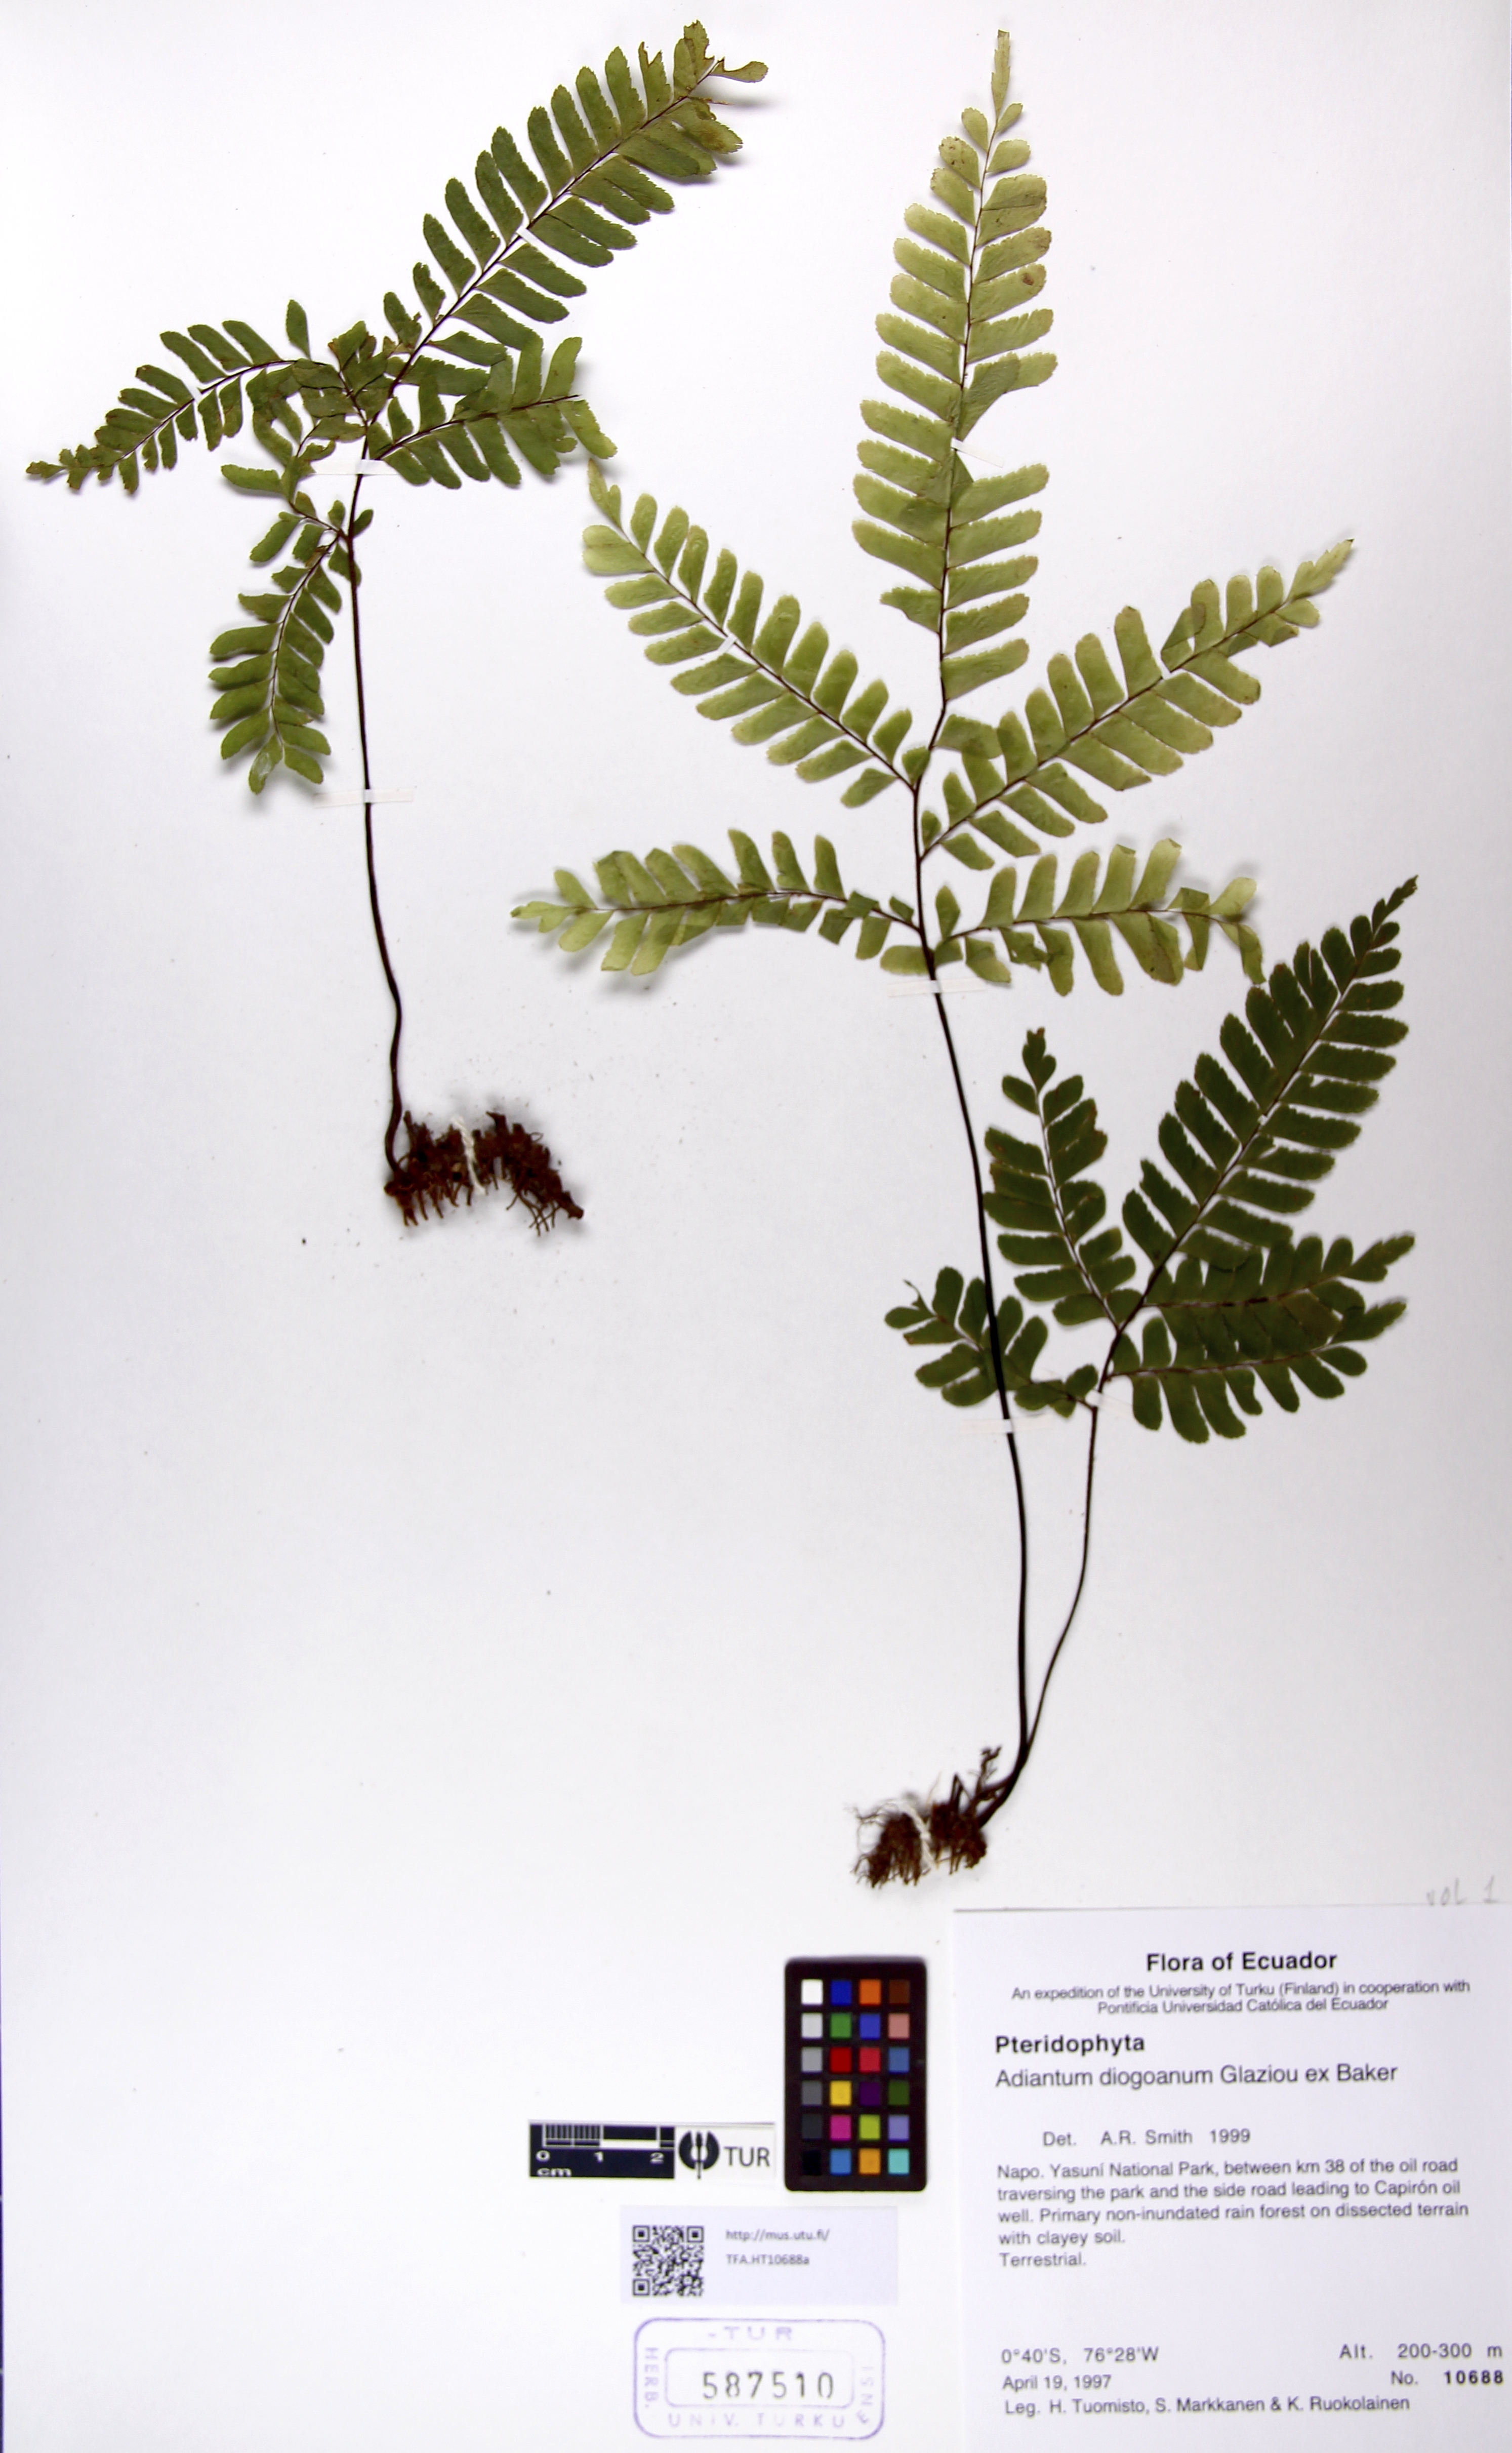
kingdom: Plantae
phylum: Tracheophyta
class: Polypodiopsida
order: Polypodiales
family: Pteridaceae
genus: Adiantum
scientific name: Adiantum diogoanum
